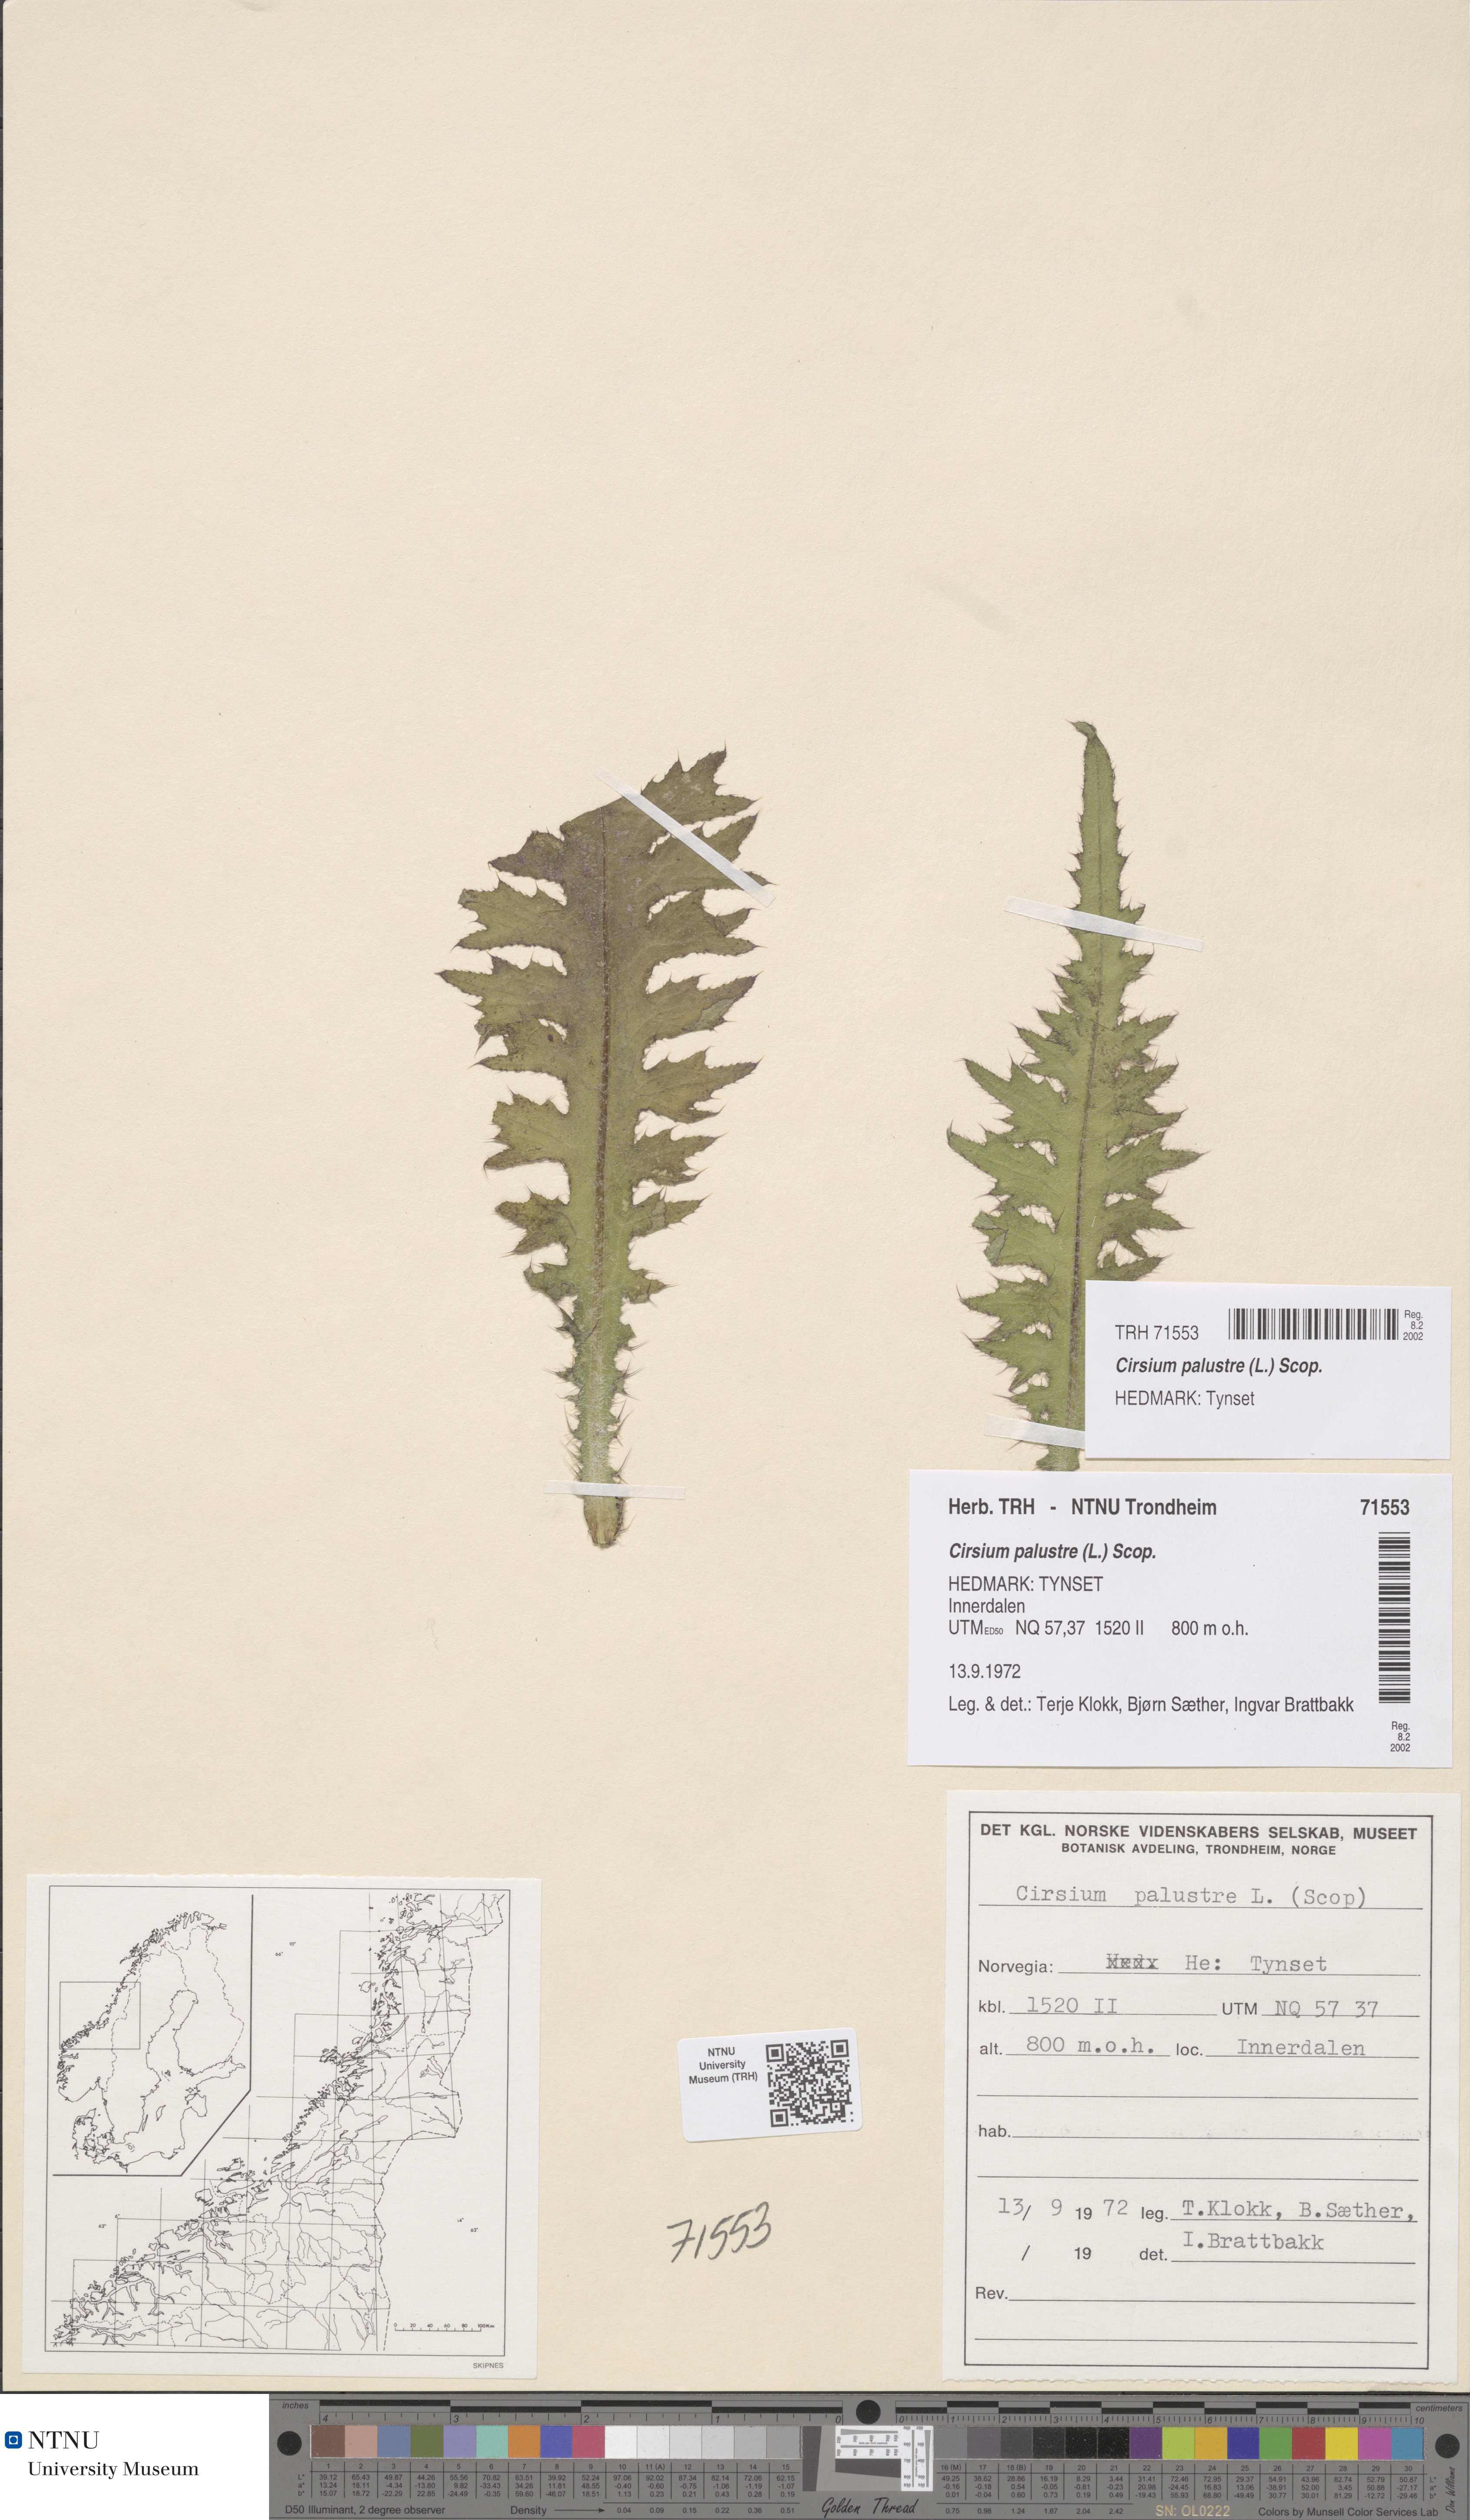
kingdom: Plantae
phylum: Tracheophyta
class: Magnoliopsida
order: Asterales
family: Asteraceae
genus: Cirsium
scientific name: Cirsium palustre
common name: Marsh thistle
